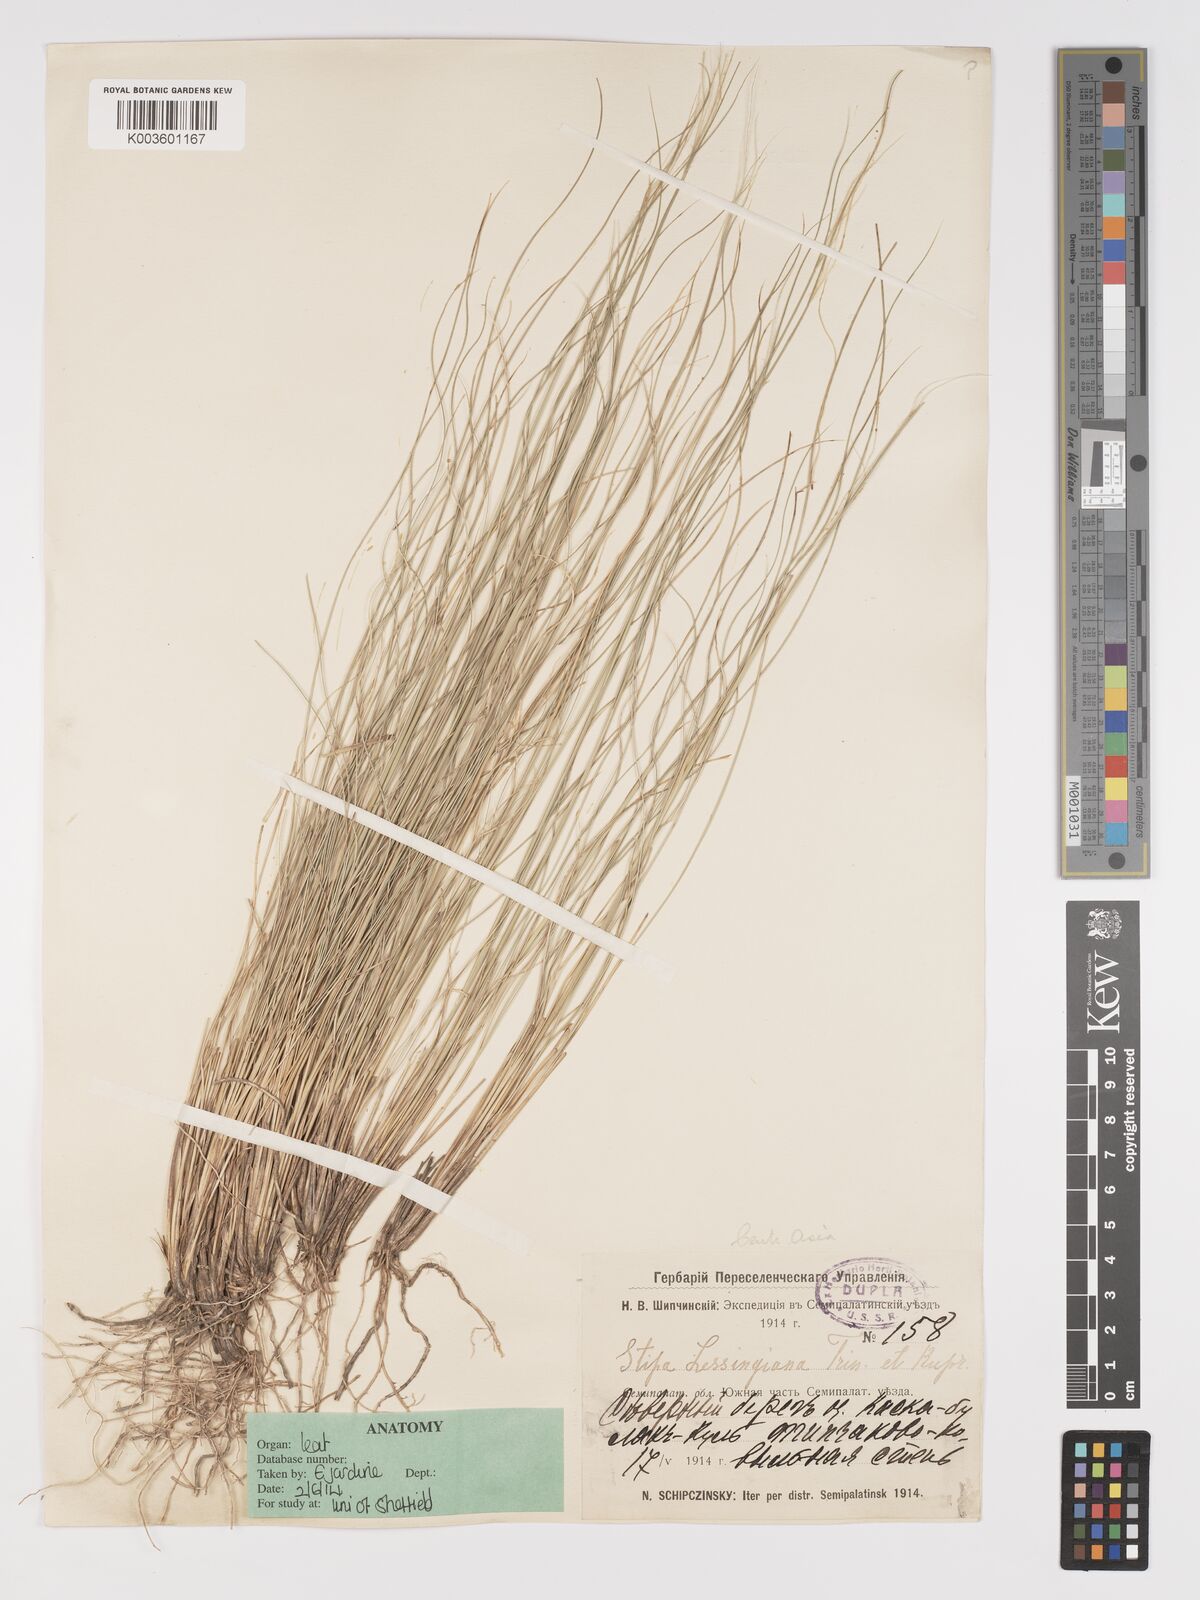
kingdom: Plantae
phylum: Tracheophyta
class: Liliopsida
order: Poales
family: Poaceae
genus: Stipa
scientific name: Stipa lessingiana
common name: Needle grass
